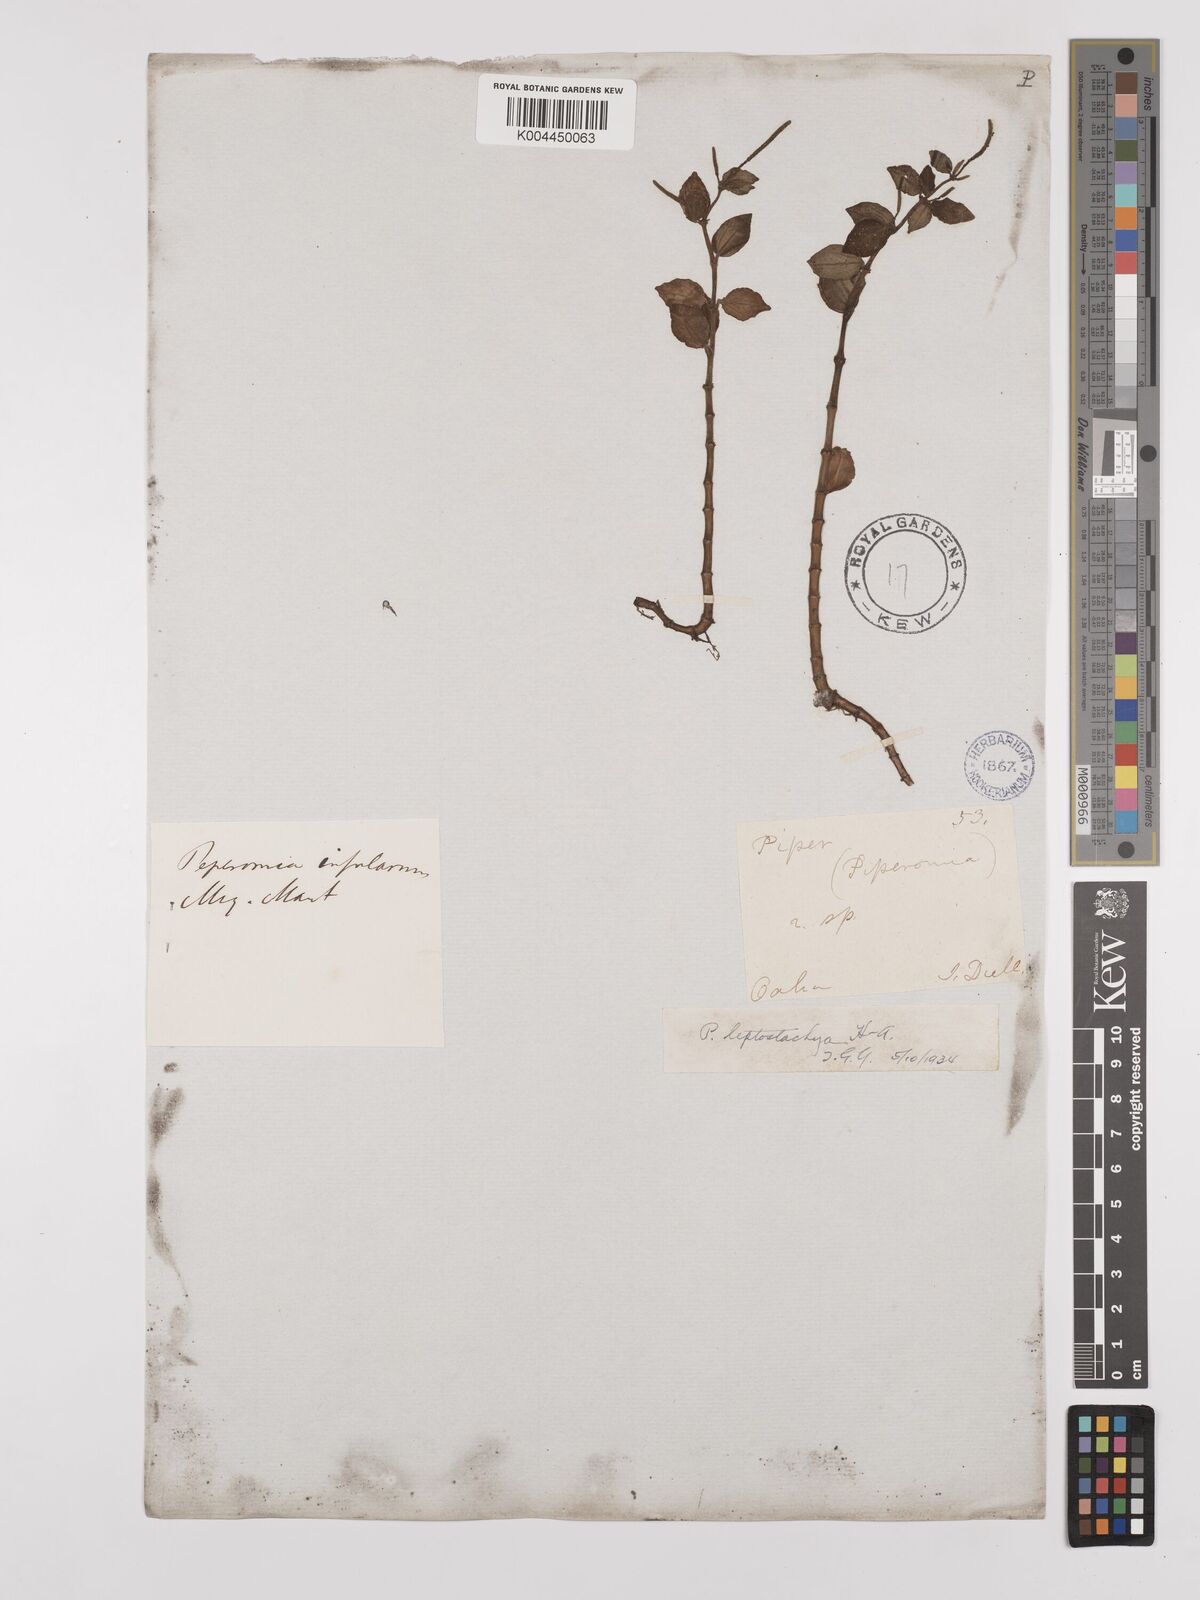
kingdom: Plantae
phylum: Tracheophyta
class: Magnoliopsida
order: Piperales
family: Piperaceae
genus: Peperomia
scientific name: Peperomia leptostachya
